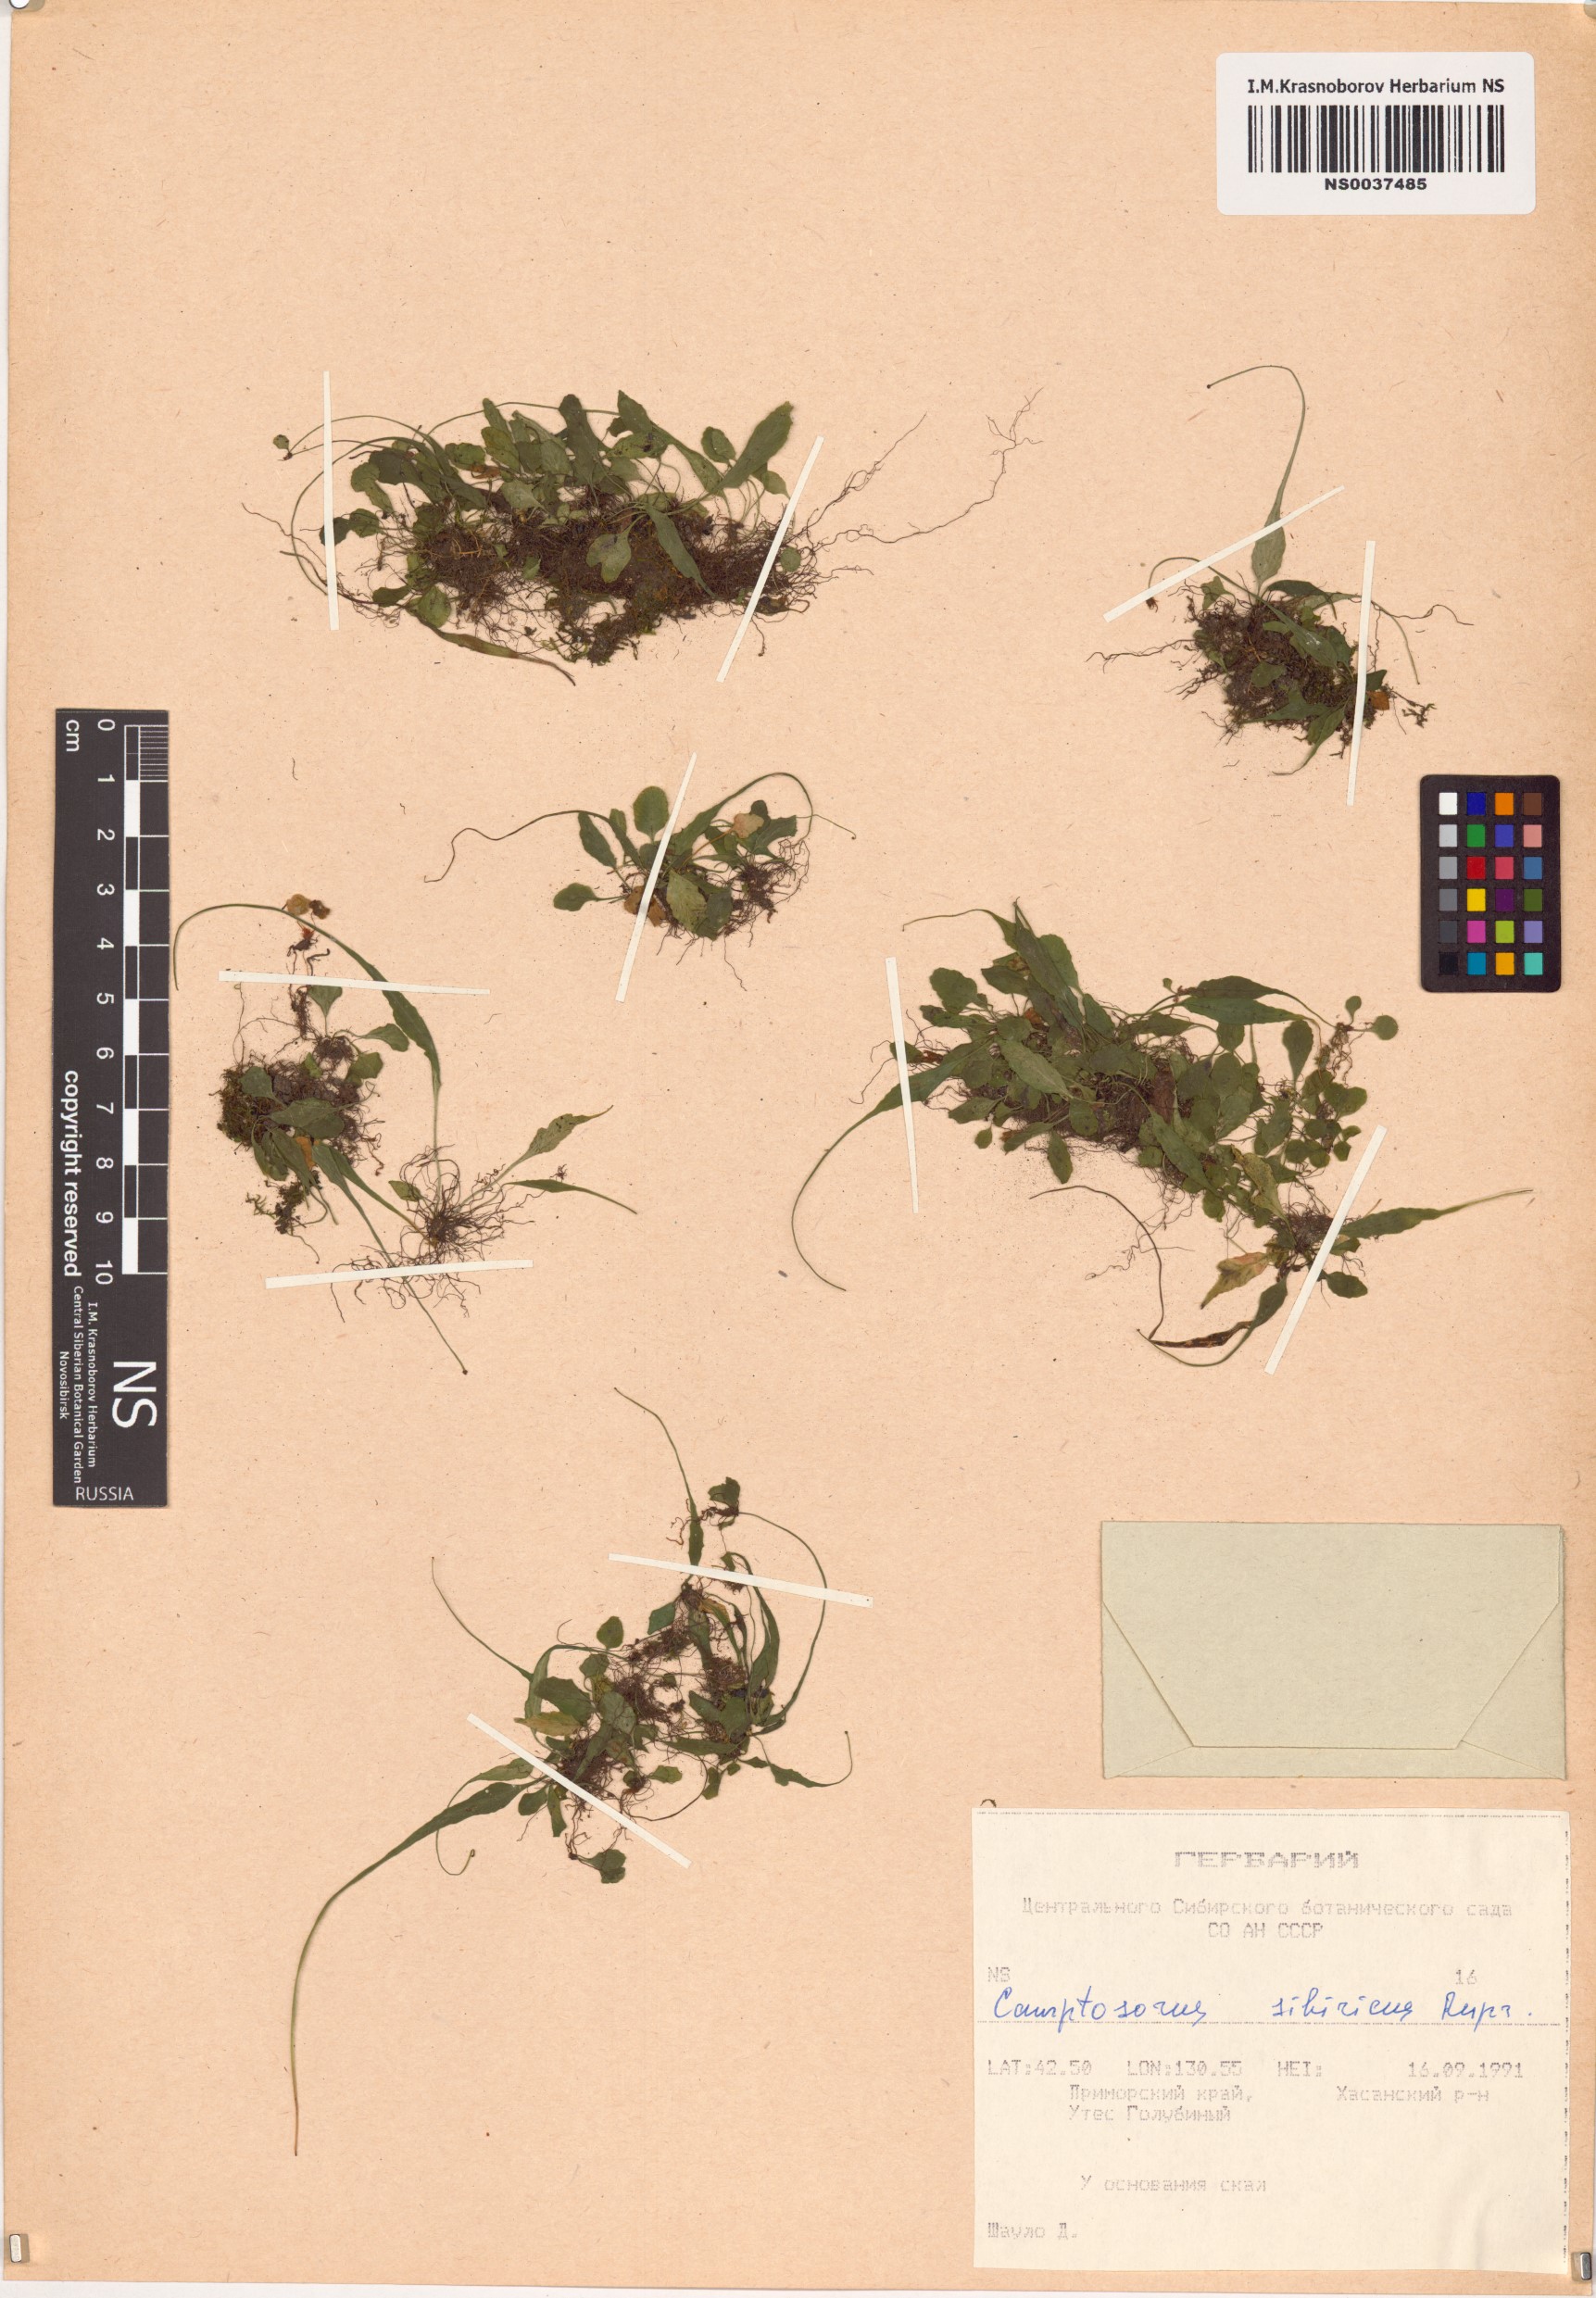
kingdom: Plantae
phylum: Tracheophyta
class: Polypodiopsida
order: Polypodiales
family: Aspleniaceae
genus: Asplenium
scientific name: Asplenium ruprechtii
